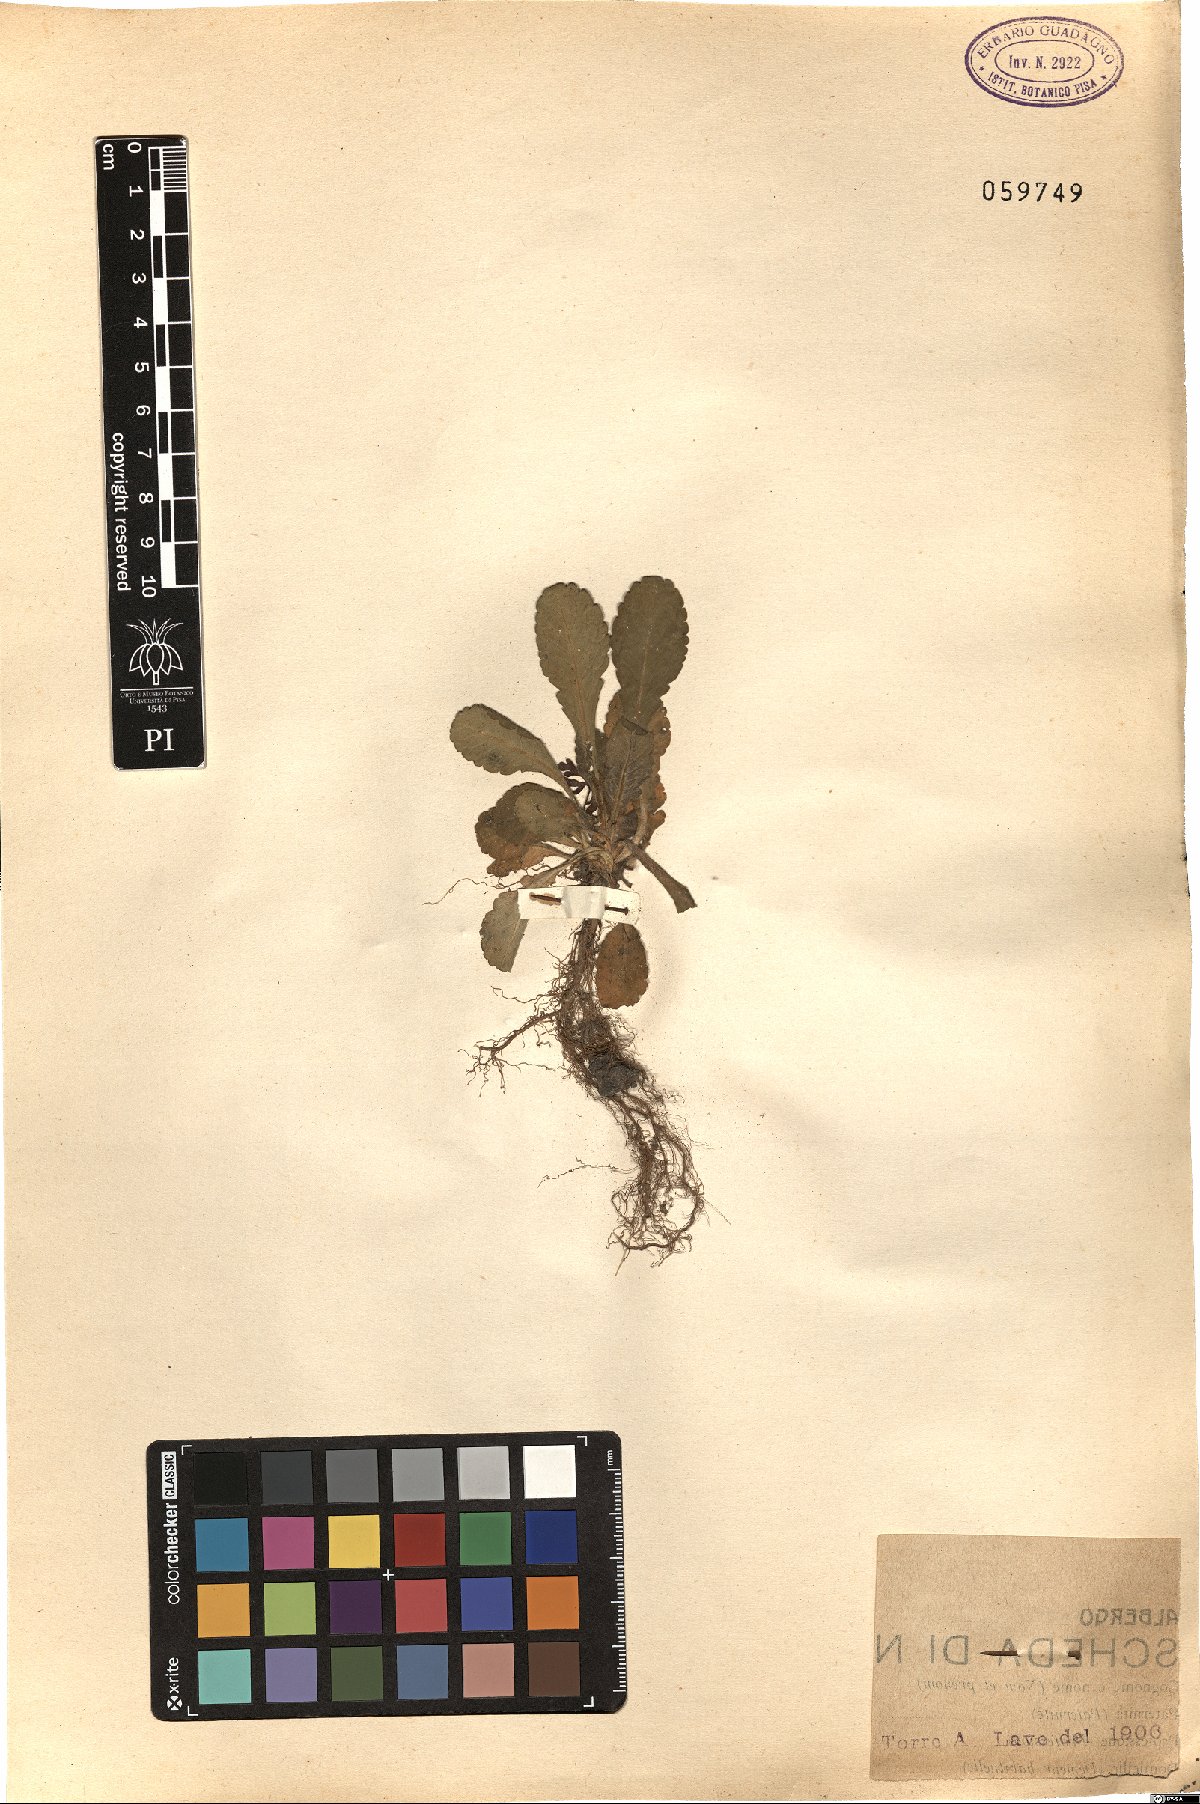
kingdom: Plantae
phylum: Tracheophyta
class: Magnoliopsida
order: Dipsacales
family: Caprifoliaceae
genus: Scabiosa
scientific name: Scabiosa
